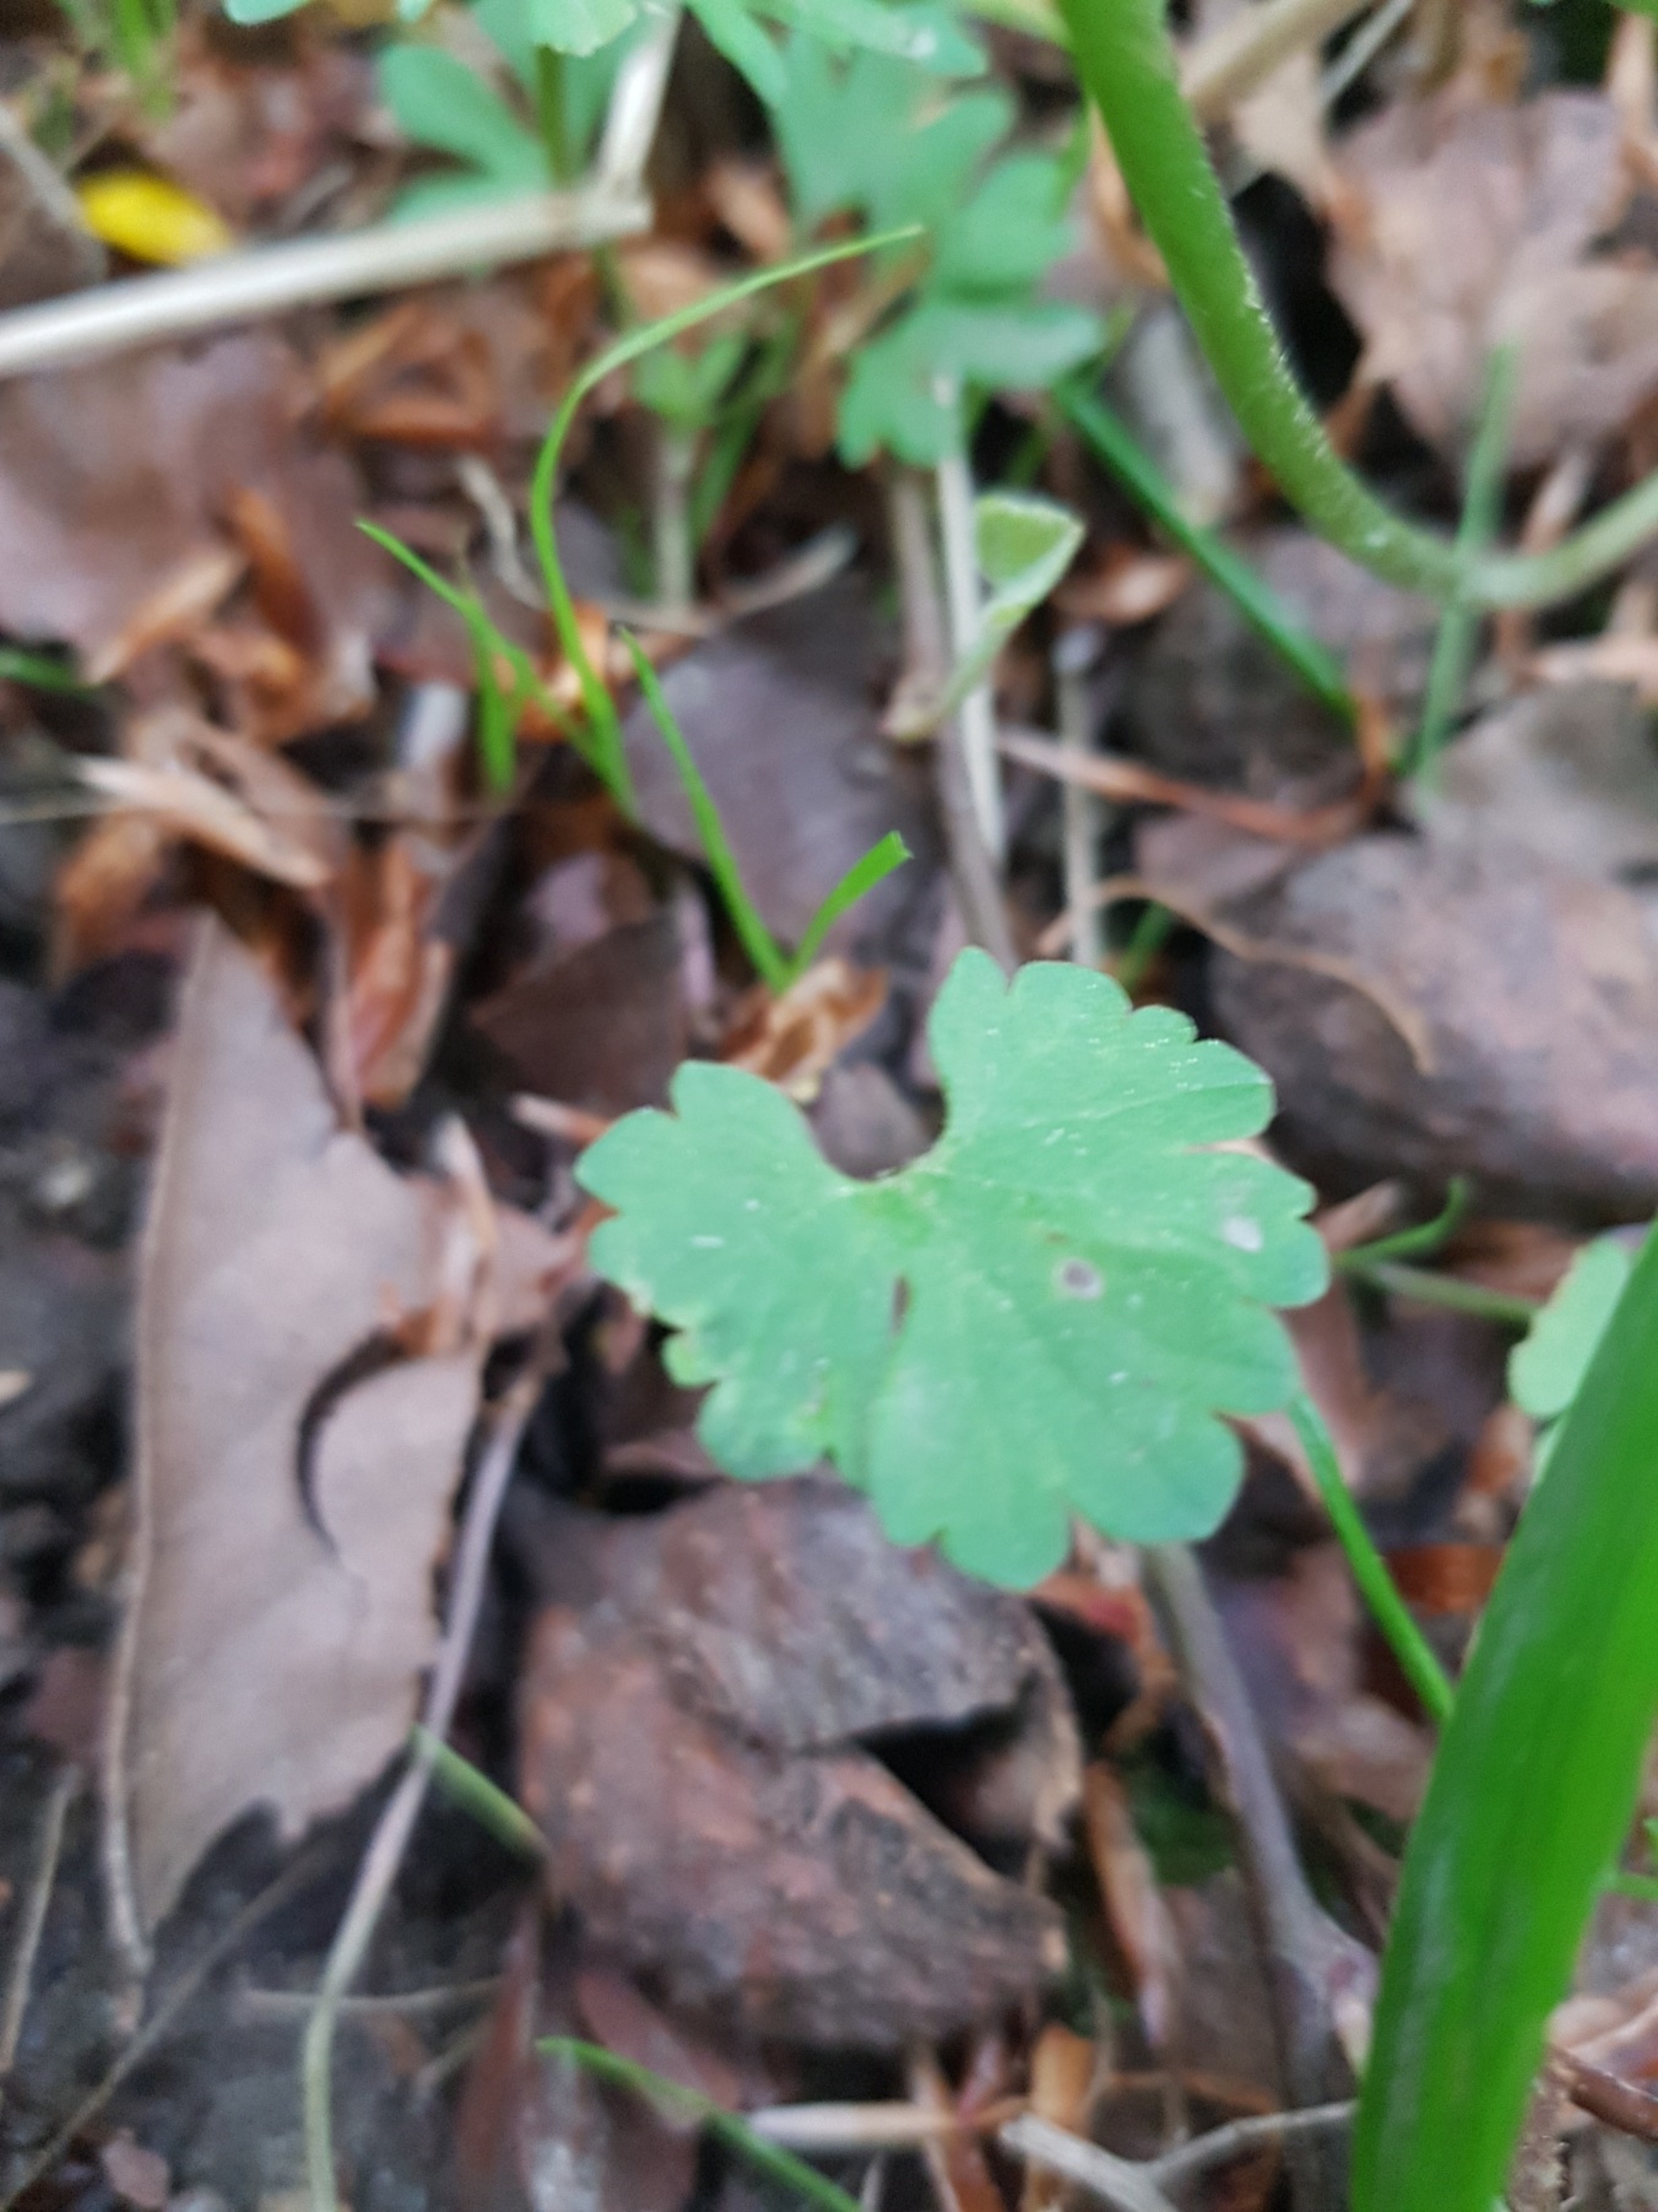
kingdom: Plantae
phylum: Tracheophyta
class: Magnoliopsida
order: Ranunculales
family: Ranunculaceae
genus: Ranunculus
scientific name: Ranunculus auricomus
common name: Nyrebladet ranunkel
